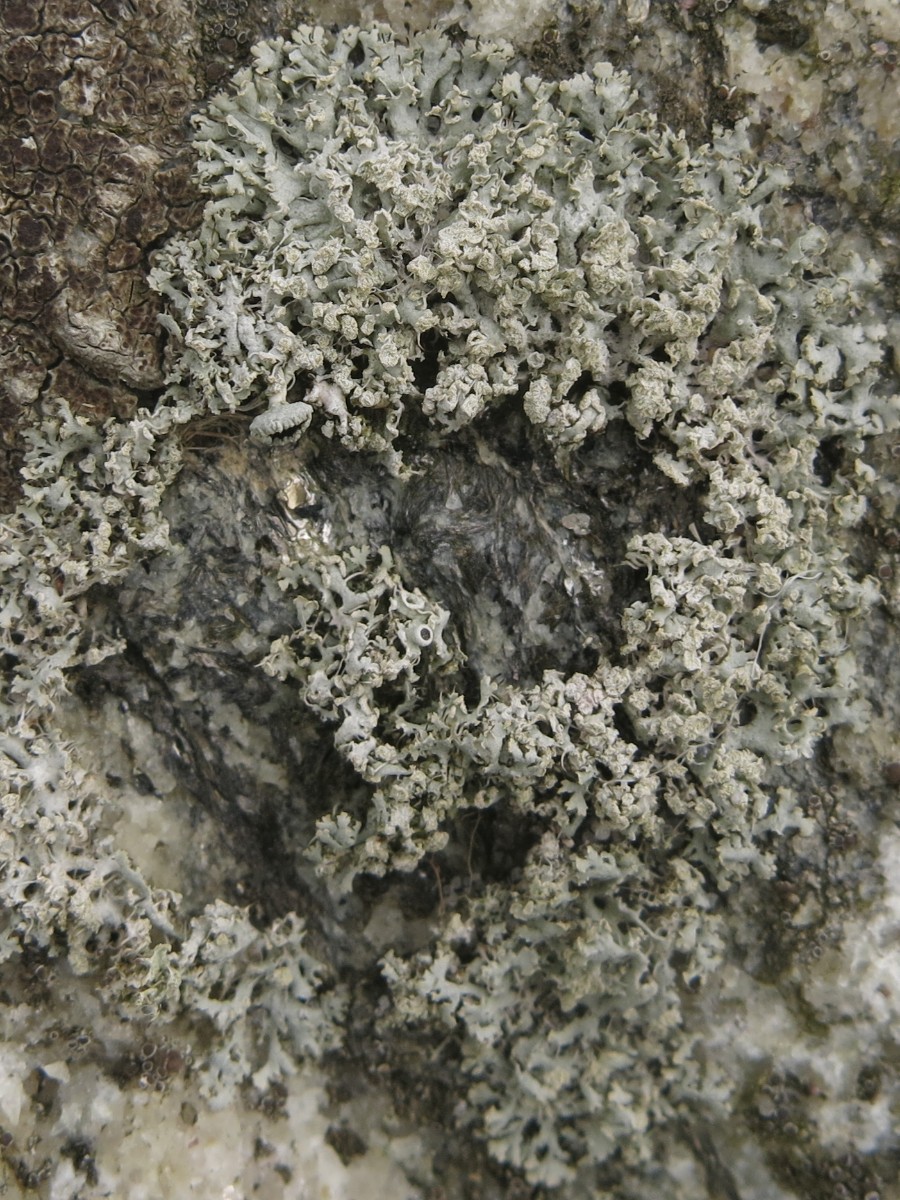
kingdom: Fungi
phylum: Ascomycota
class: Lecanoromycetes
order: Caliciales
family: Physciaceae
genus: Physcia
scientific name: Physcia tenella
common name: spæd rosetlav
